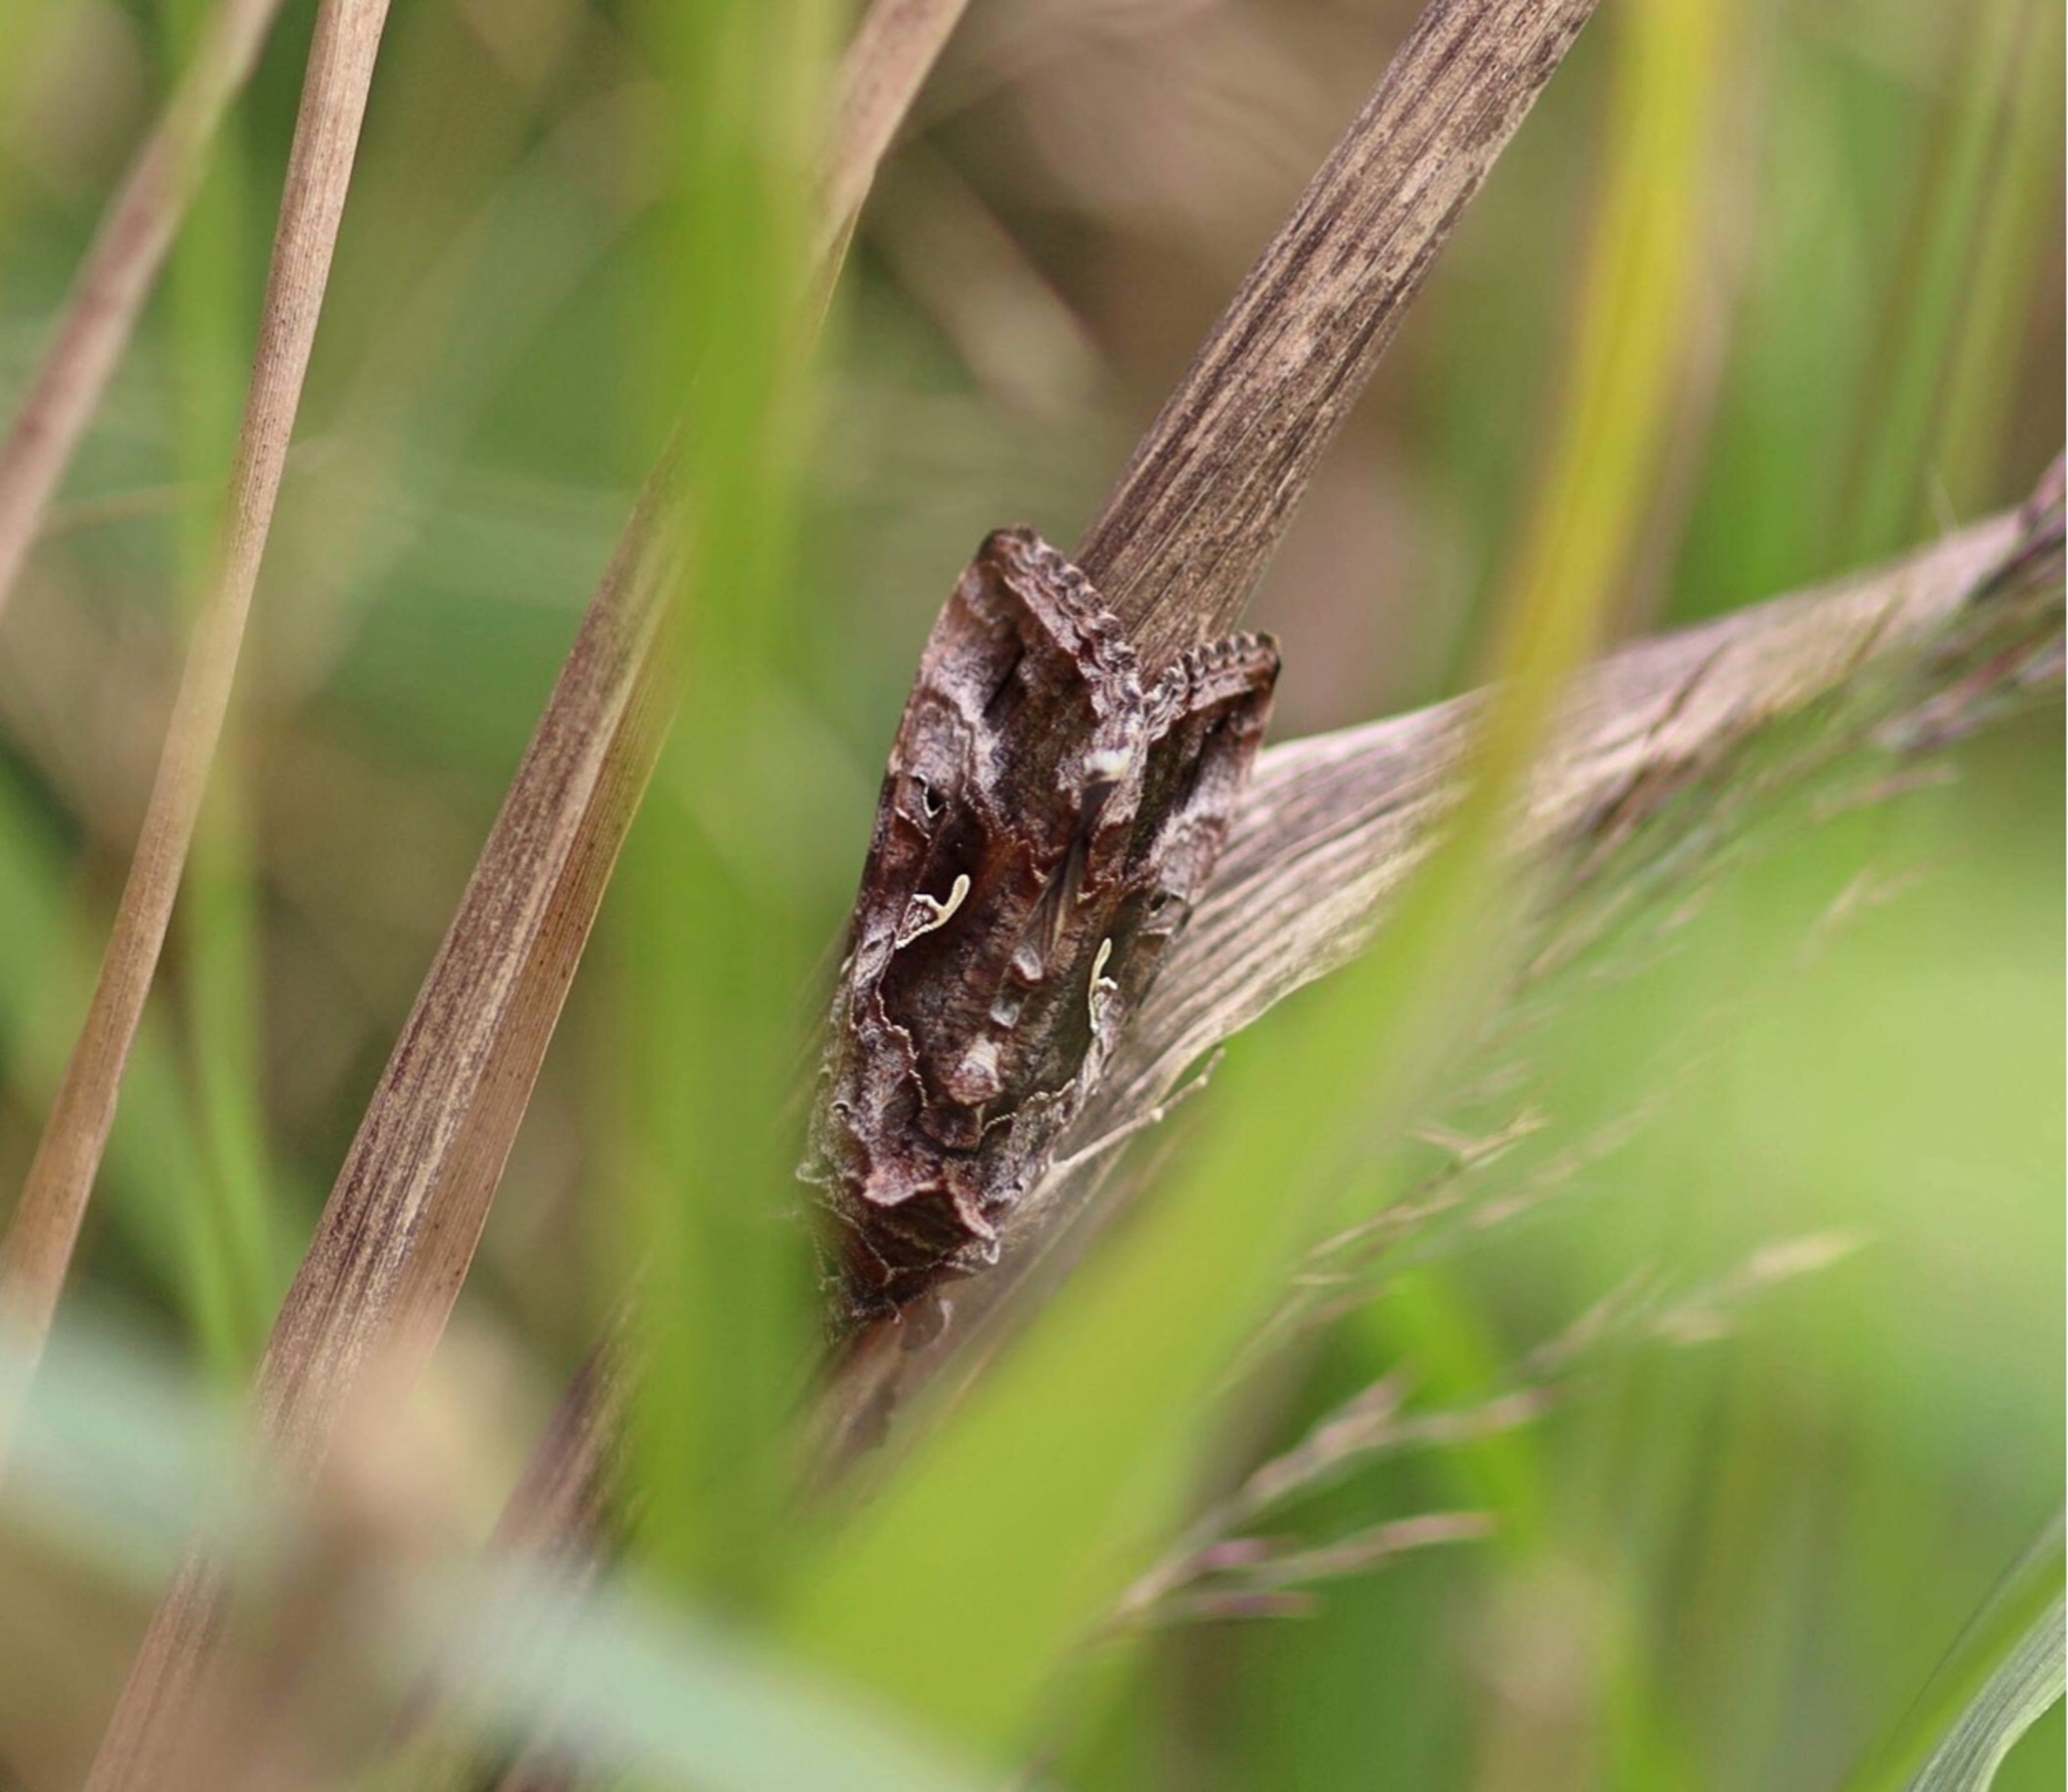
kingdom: Animalia
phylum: Arthropoda
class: Insecta
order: Lepidoptera
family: Noctuidae
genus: Autographa
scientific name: Autographa gamma
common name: Gammaugle
